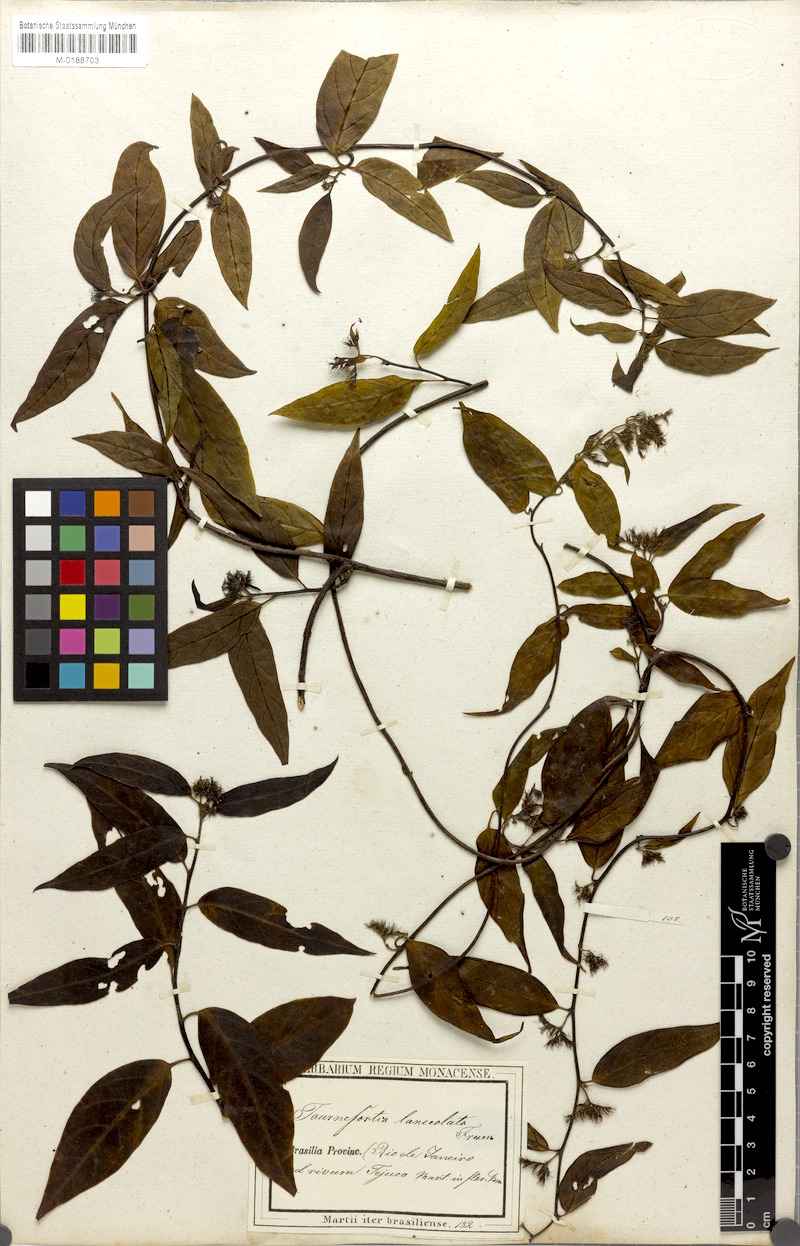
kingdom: Plantae
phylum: Tracheophyta
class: Magnoliopsida
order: Boraginales
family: Heliotropiaceae
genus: Myriopus
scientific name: Myriopus breviflorus
